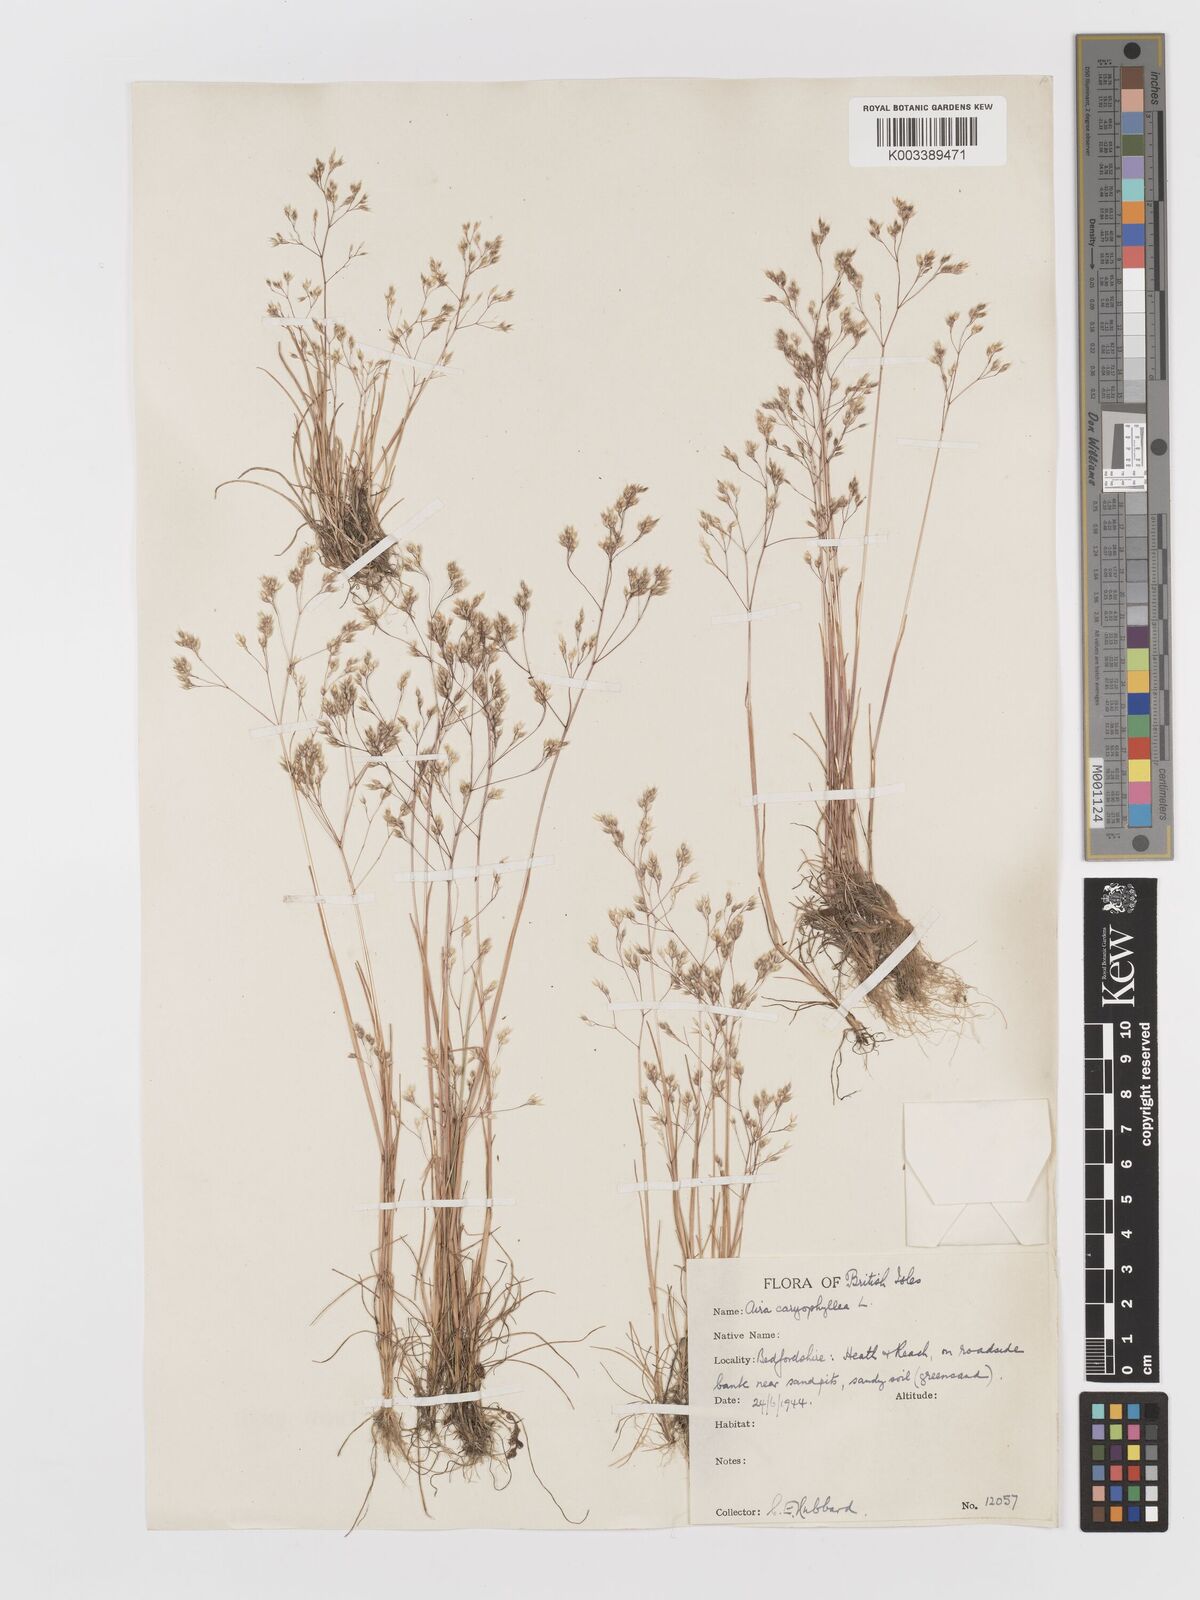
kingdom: Plantae
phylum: Tracheophyta
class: Liliopsida
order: Poales
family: Poaceae
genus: Aira
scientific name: Aira caryophyllea
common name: Silver hairgrass
